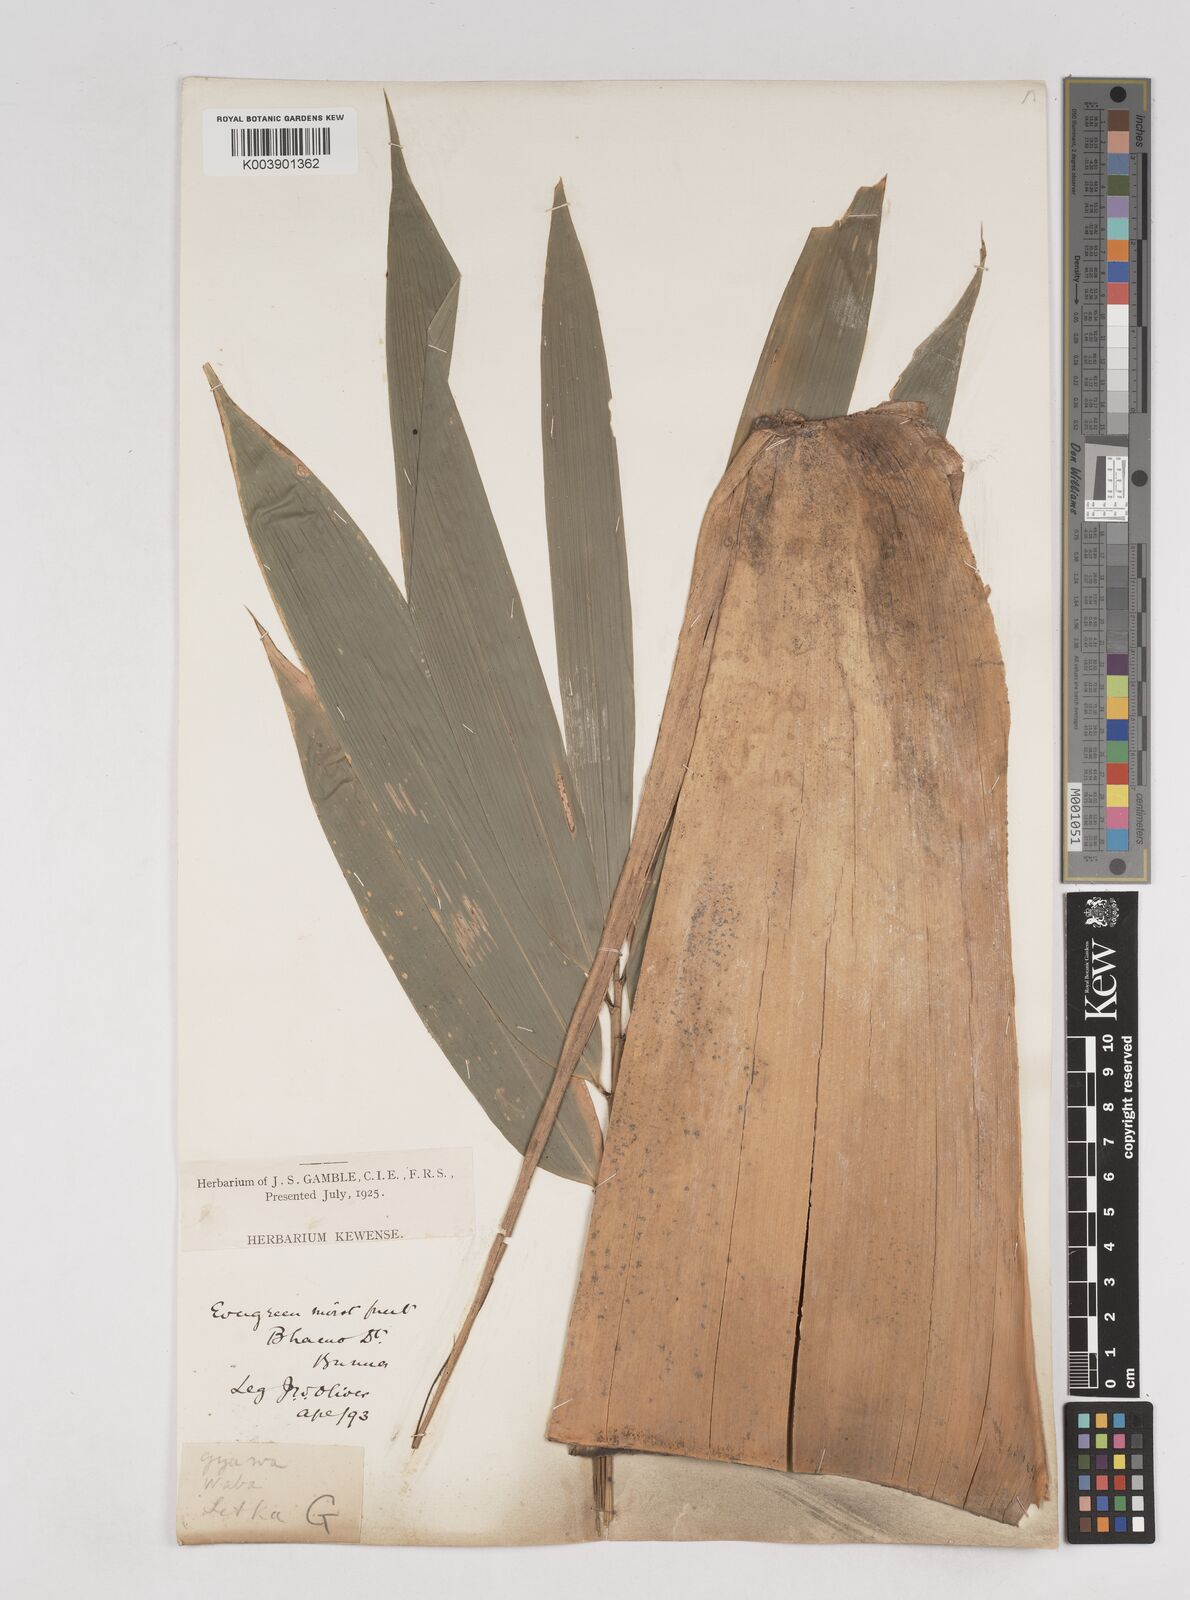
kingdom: Plantae
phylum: Tracheophyta
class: Liliopsida
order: Poales
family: Poaceae
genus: Schizostachyum
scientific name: Schizostachyum dullooa
